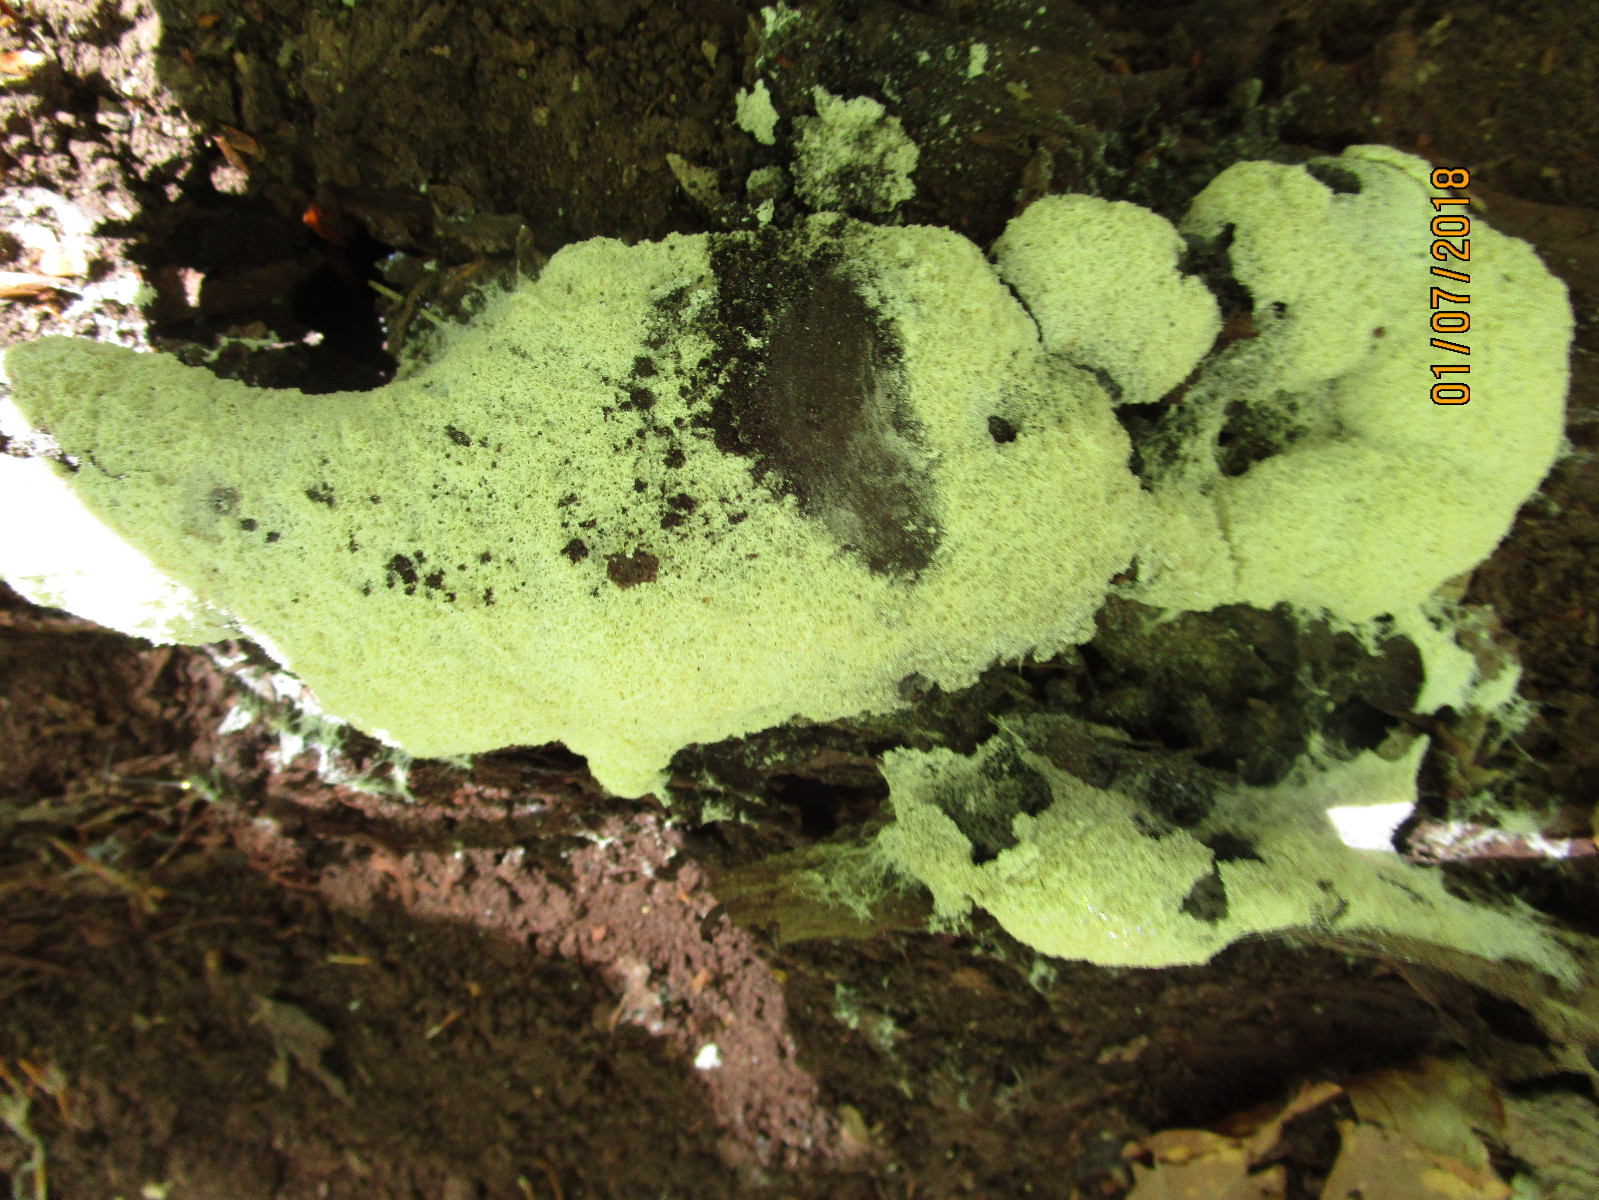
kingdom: Protozoa
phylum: Mycetozoa
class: Myxomycetes
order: Physarales
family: Physaraceae
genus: Fuligo
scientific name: Fuligo septica
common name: gul troldsmør
